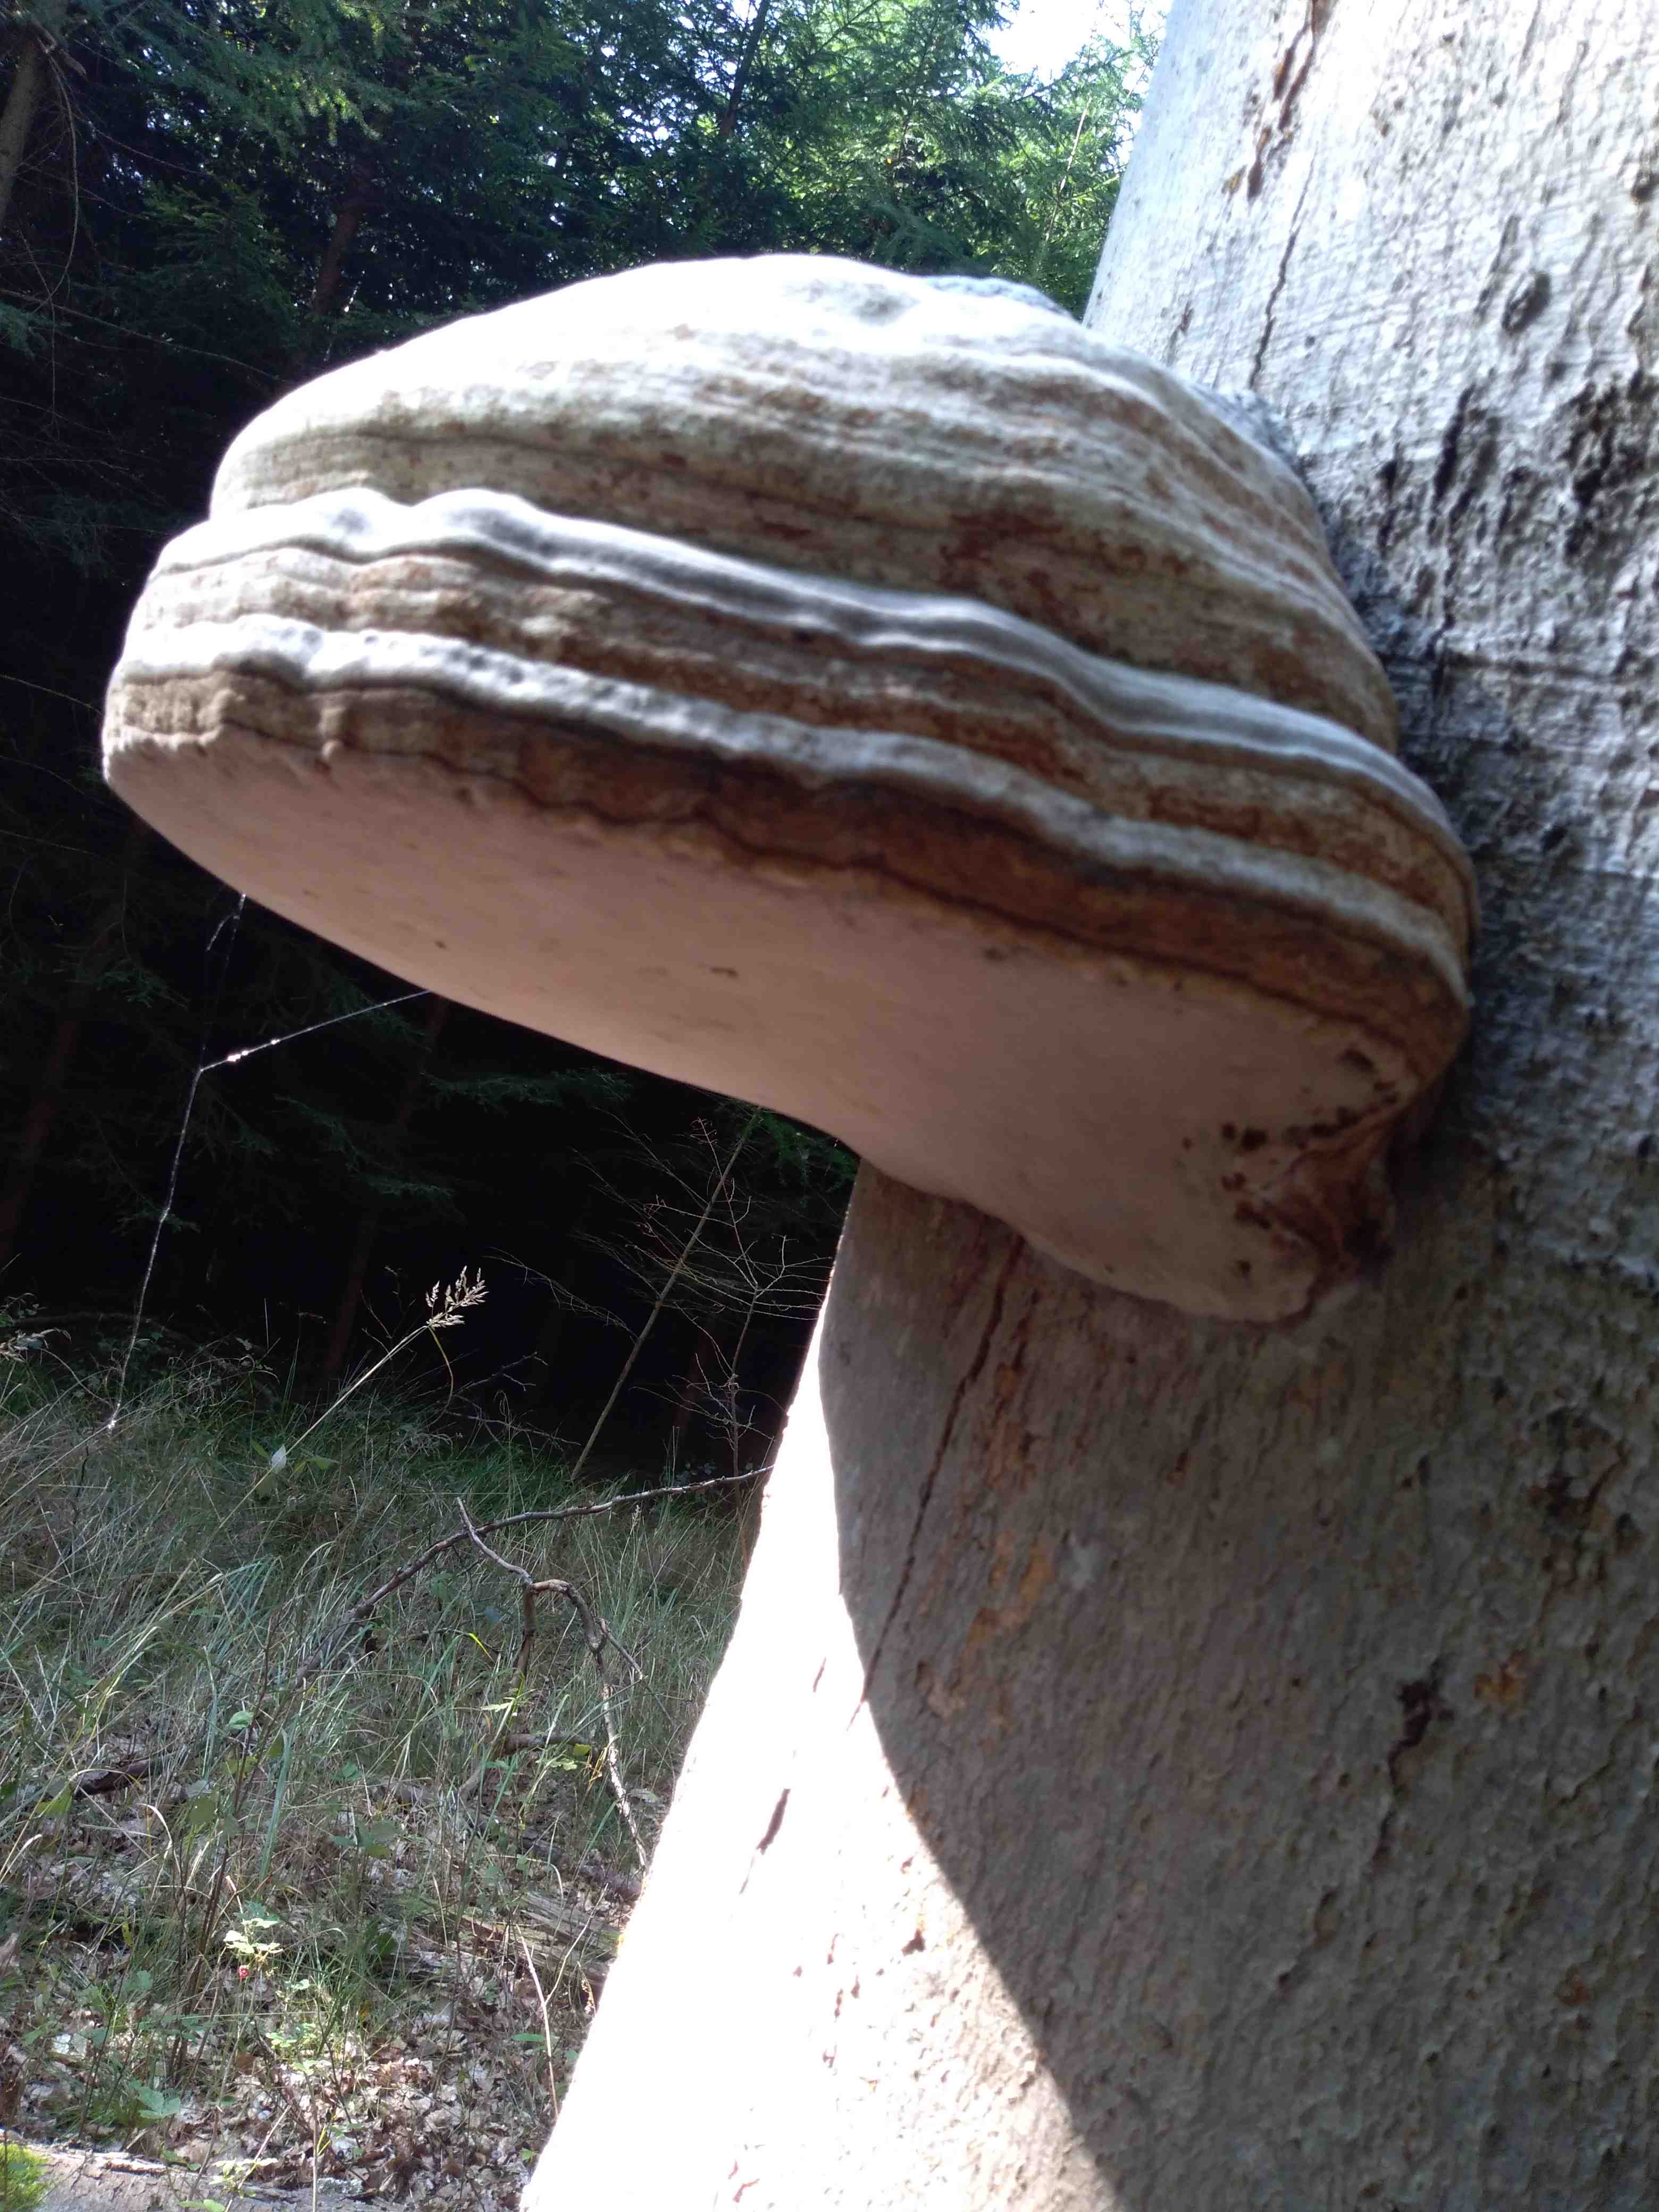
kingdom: Fungi
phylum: Basidiomycota
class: Agaricomycetes
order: Polyporales
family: Polyporaceae
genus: Fomes
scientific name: Fomes fomentarius
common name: tøndersvamp
